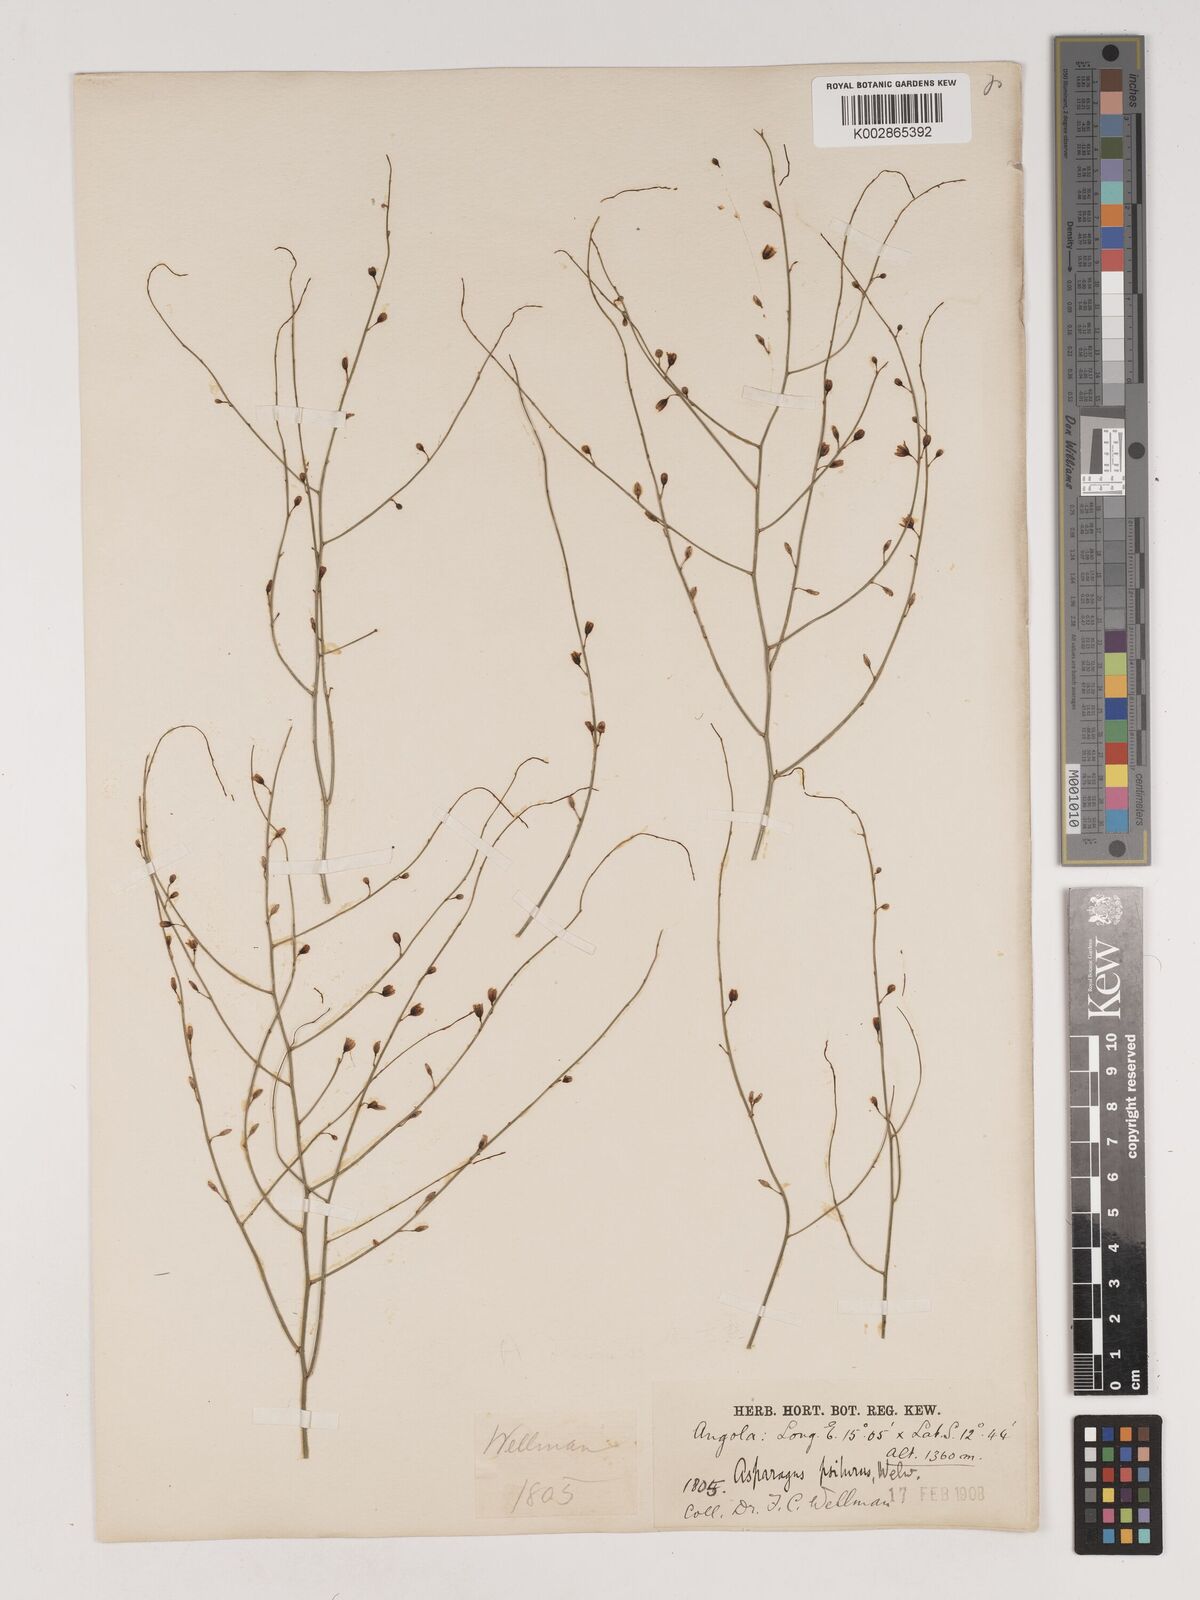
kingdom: Plantae
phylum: Tracheophyta
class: Liliopsida
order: Asparagales
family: Asparagaceae
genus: Asparagus
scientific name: Asparagus psilurus
